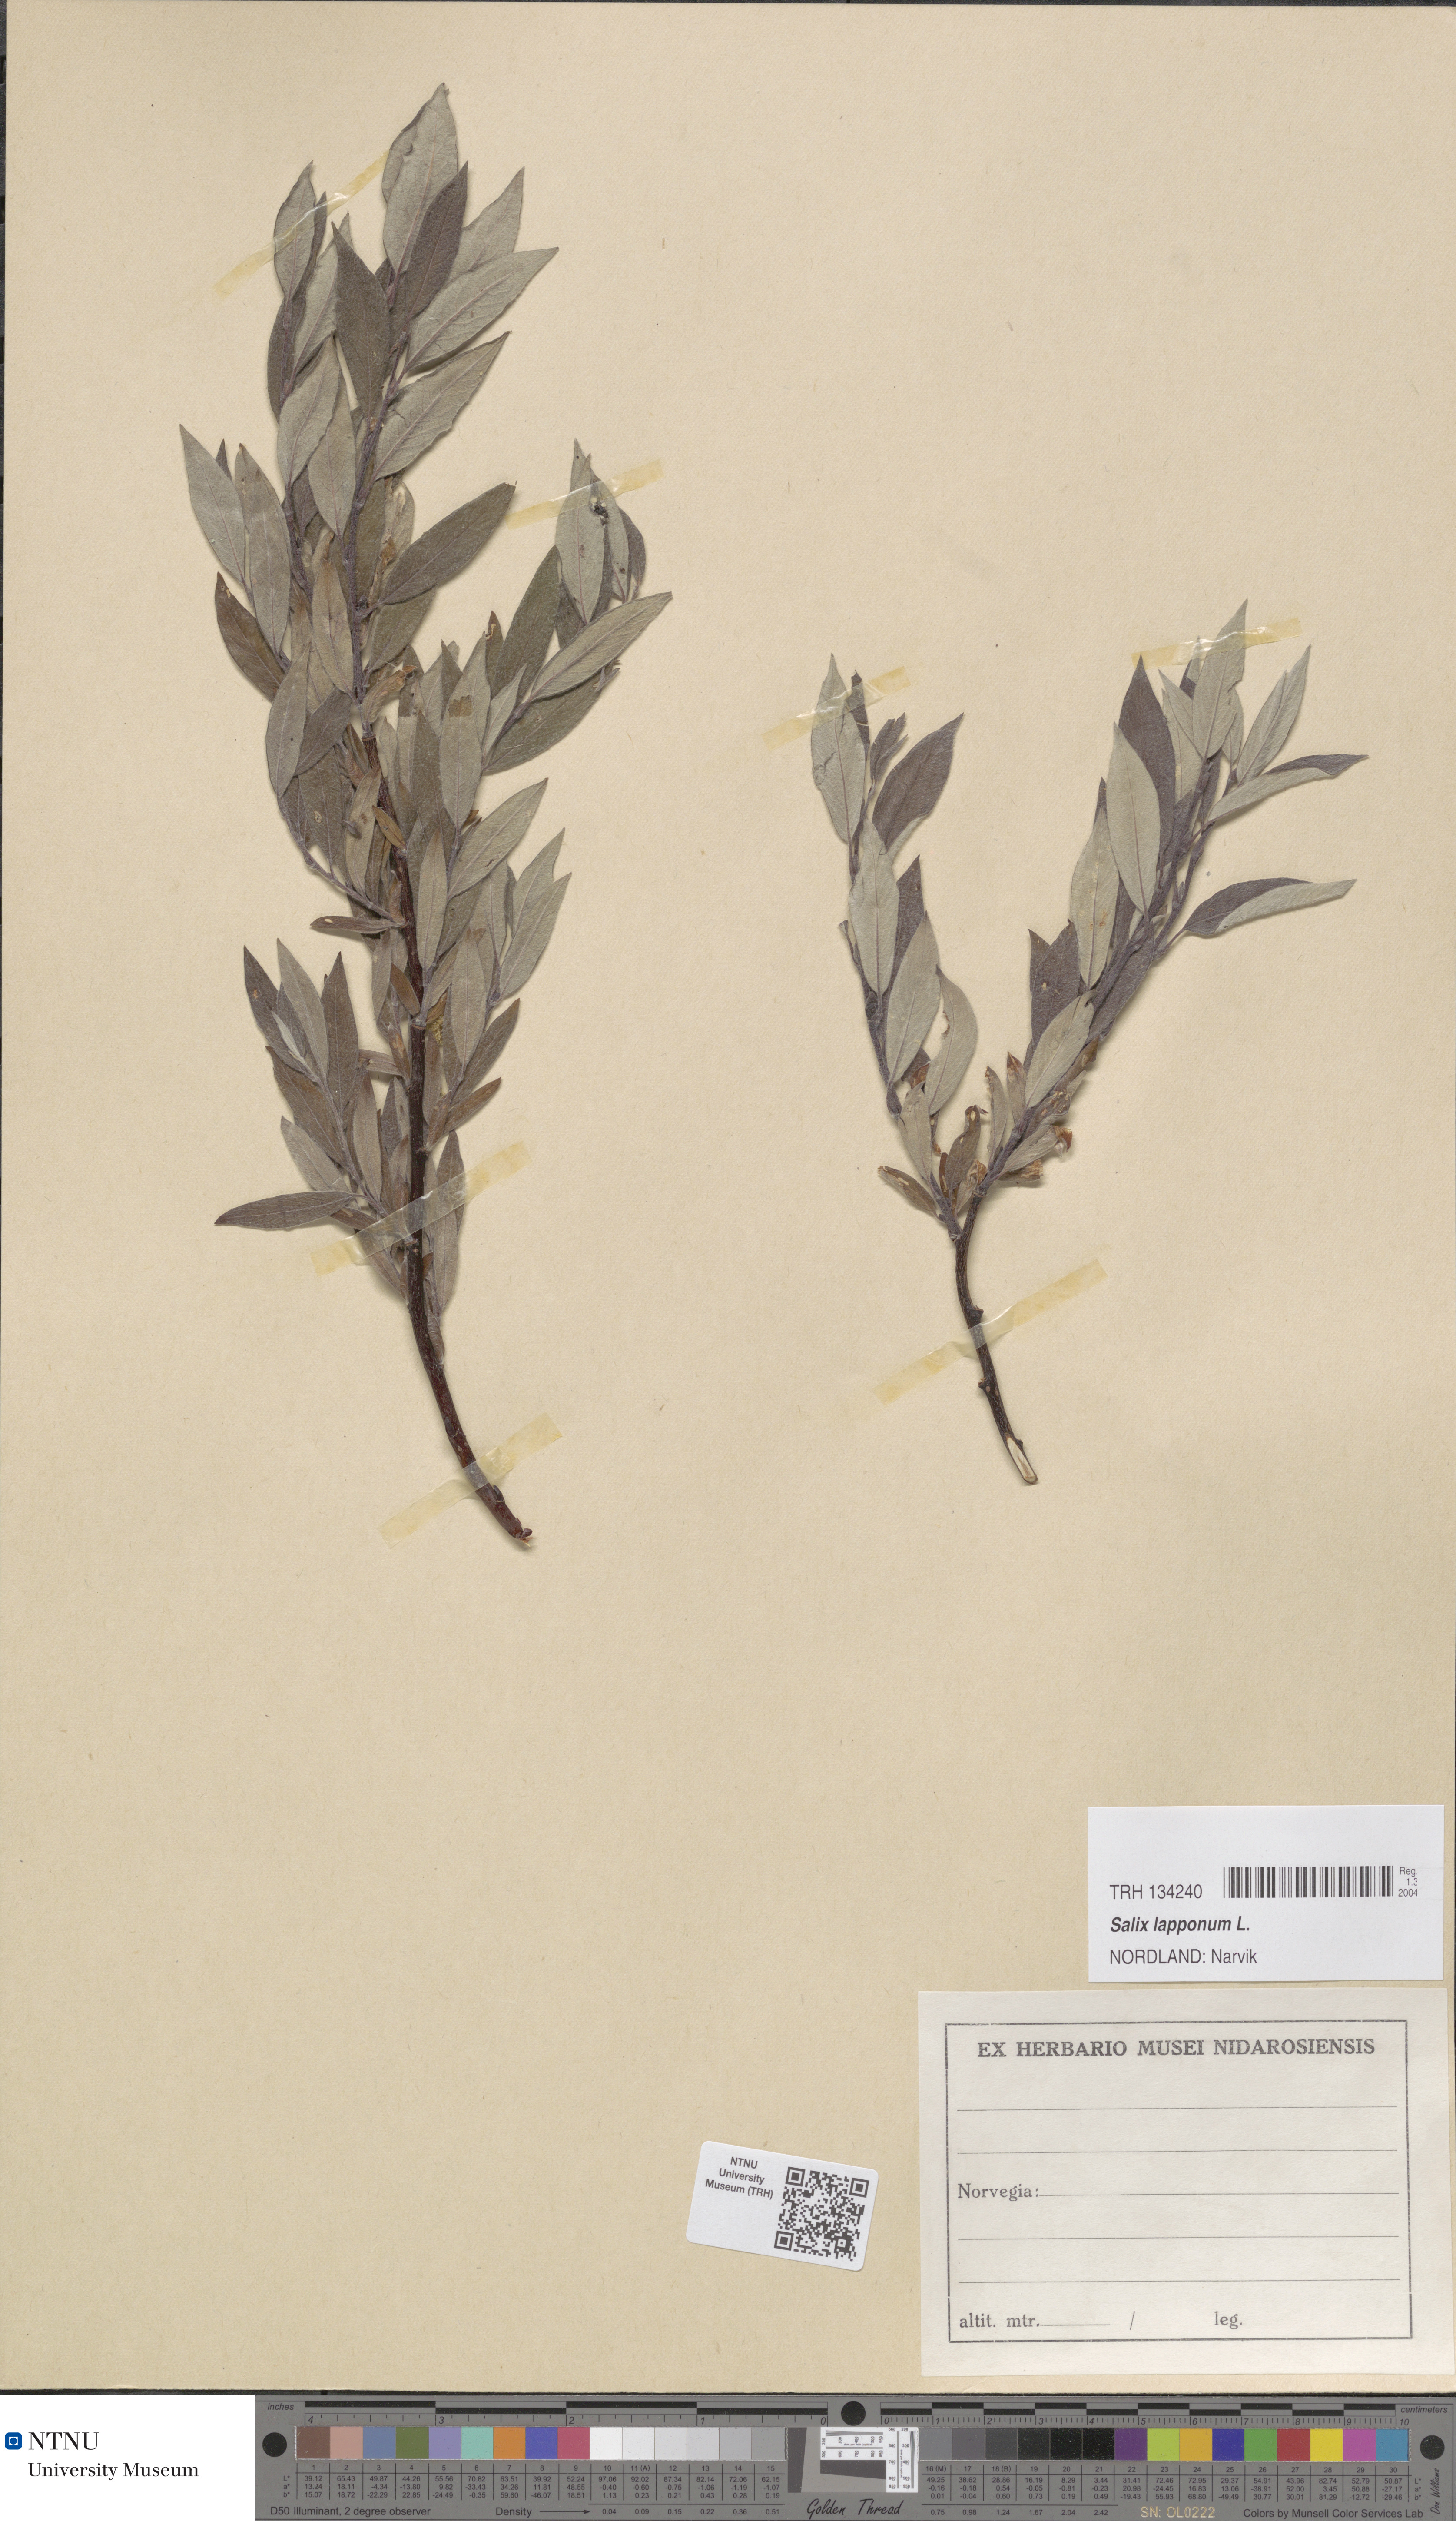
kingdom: Plantae
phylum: Tracheophyta
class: Magnoliopsida
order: Malpighiales
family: Salicaceae
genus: Salix
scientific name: Salix lapponum
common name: Downy willow
